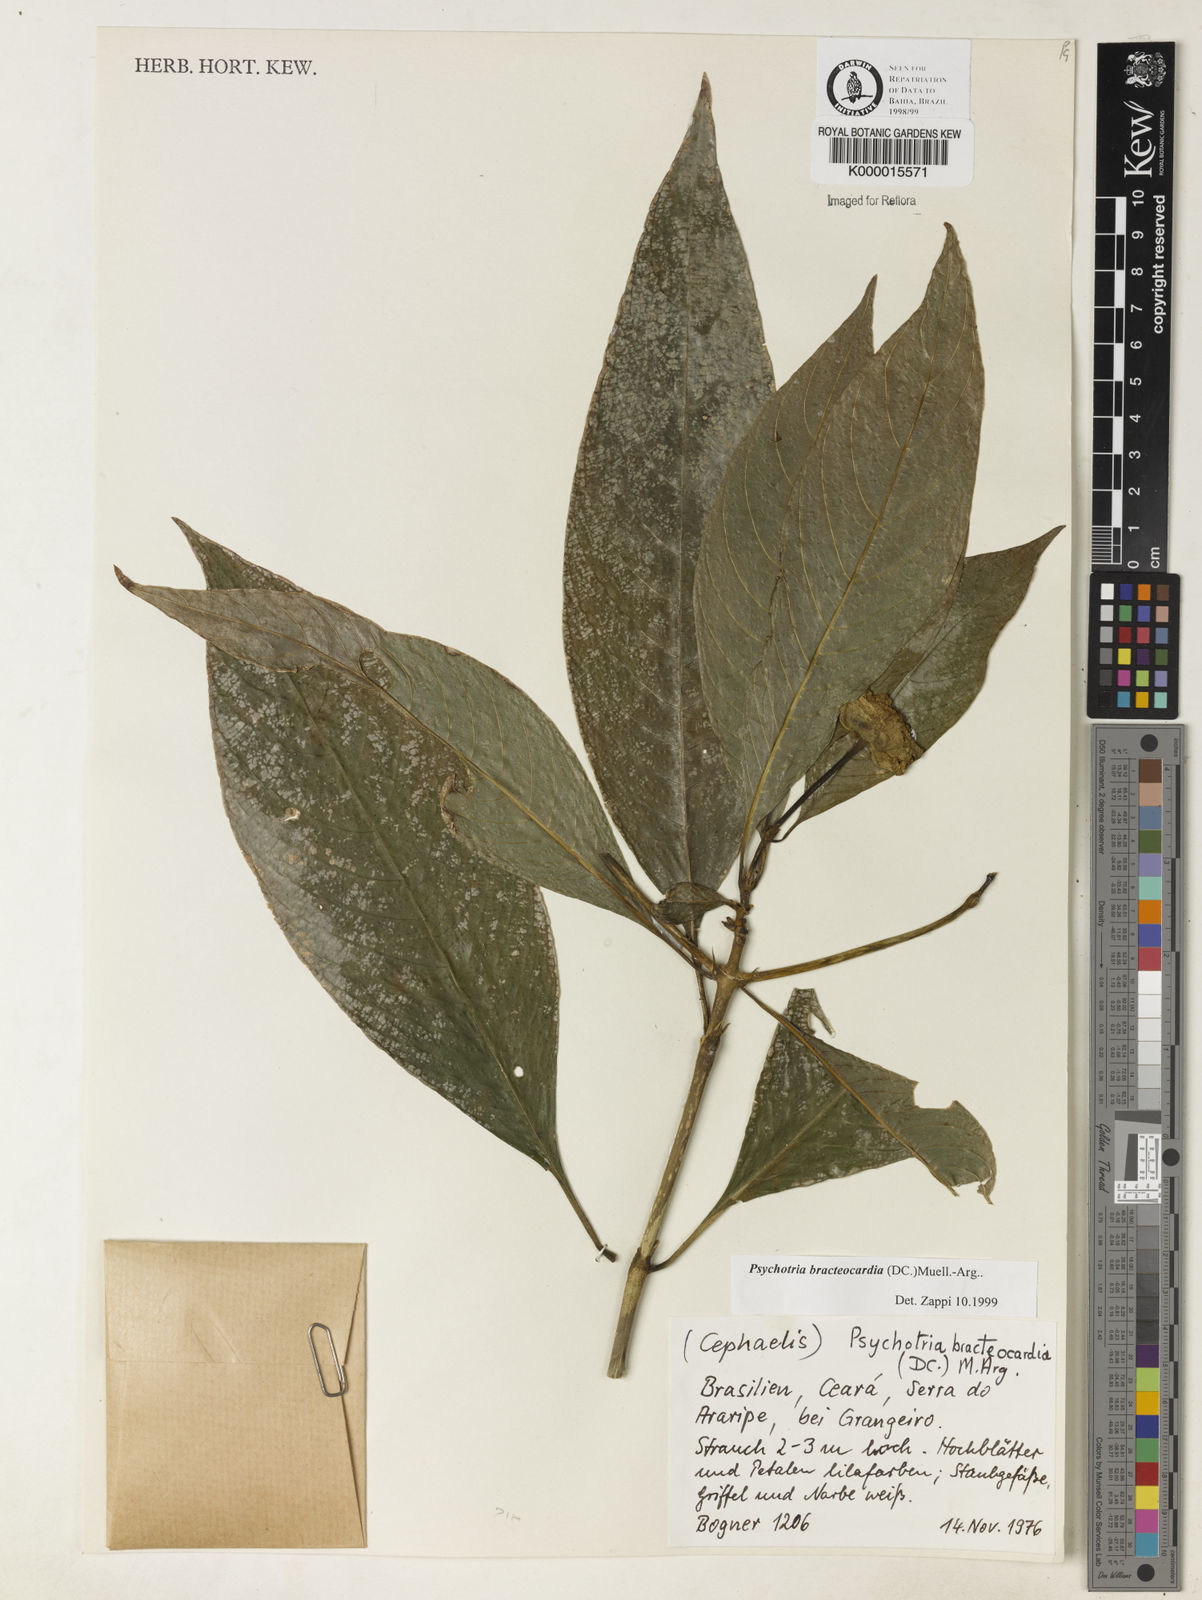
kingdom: Plantae
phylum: Tracheophyta
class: Magnoliopsida
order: Gentianales
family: Rubiaceae
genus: Psychotria
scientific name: Psychotria
